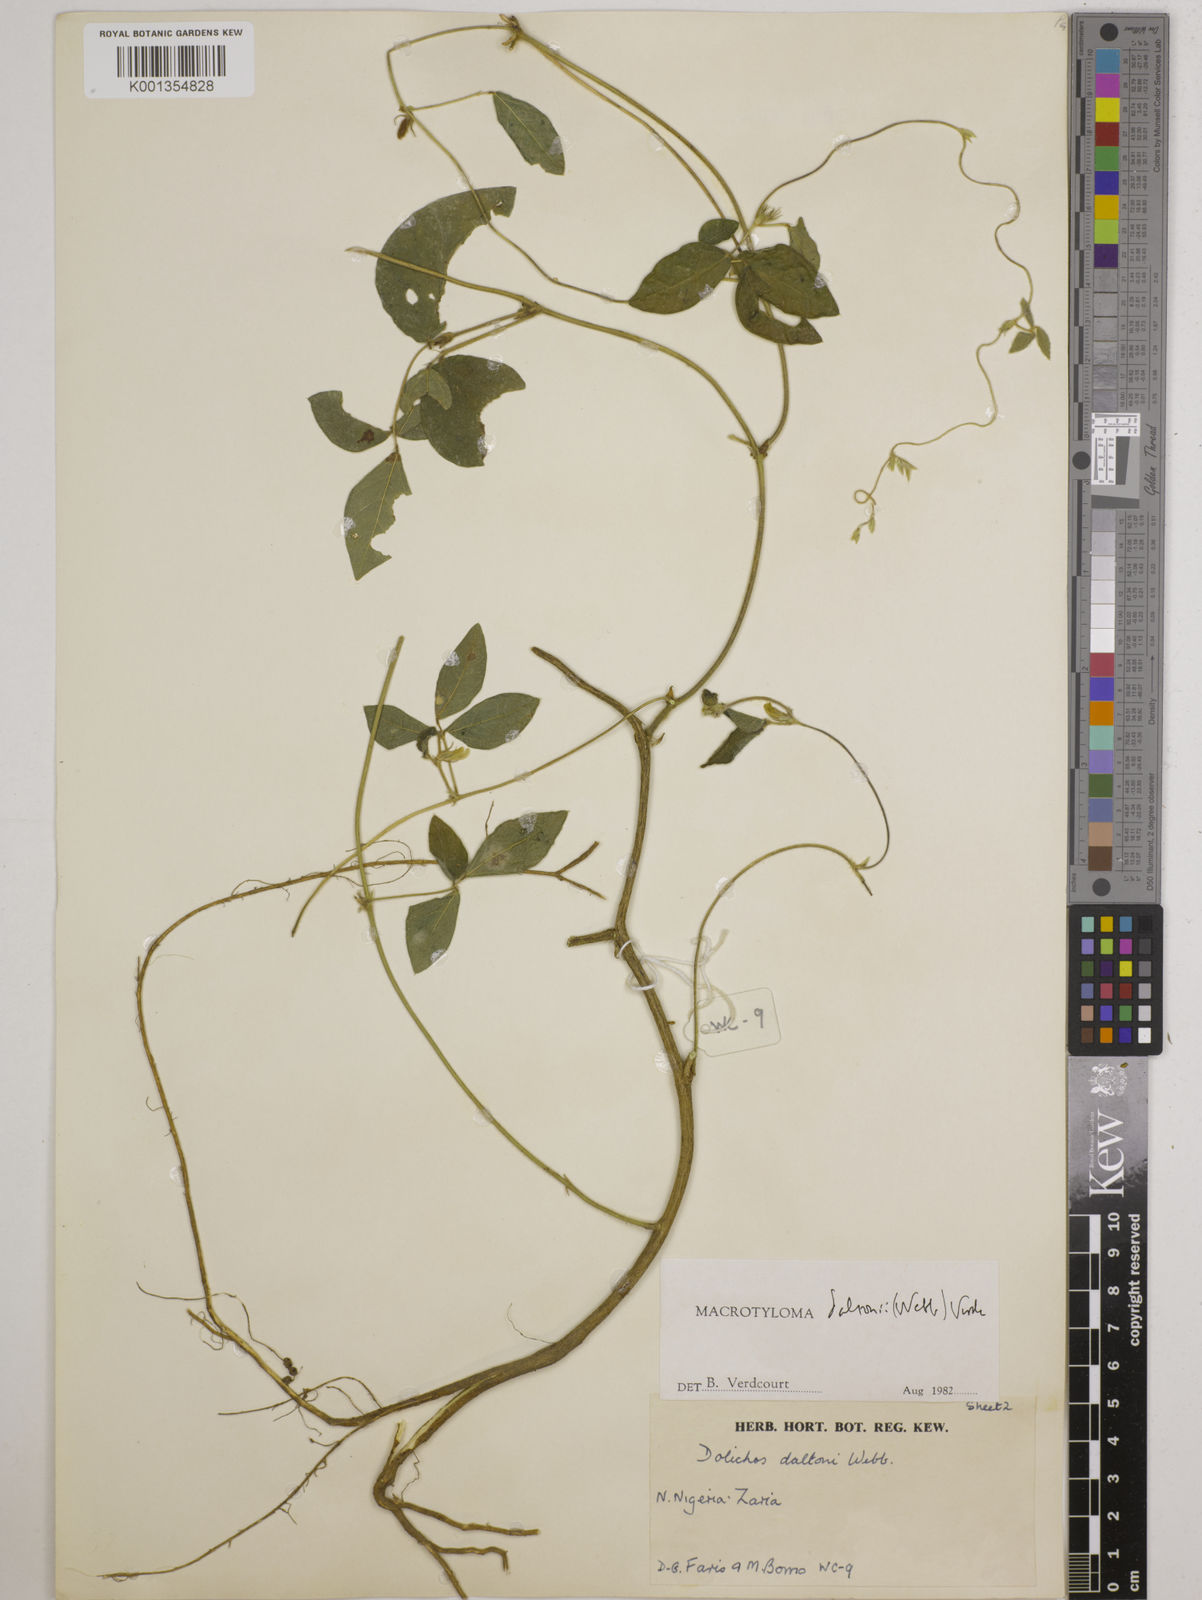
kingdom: Plantae
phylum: Tracheophyta
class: Magnoliopsida
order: Fabales
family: Fabaceae
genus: Macrotyloma
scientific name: Macrotyloma daltonii
